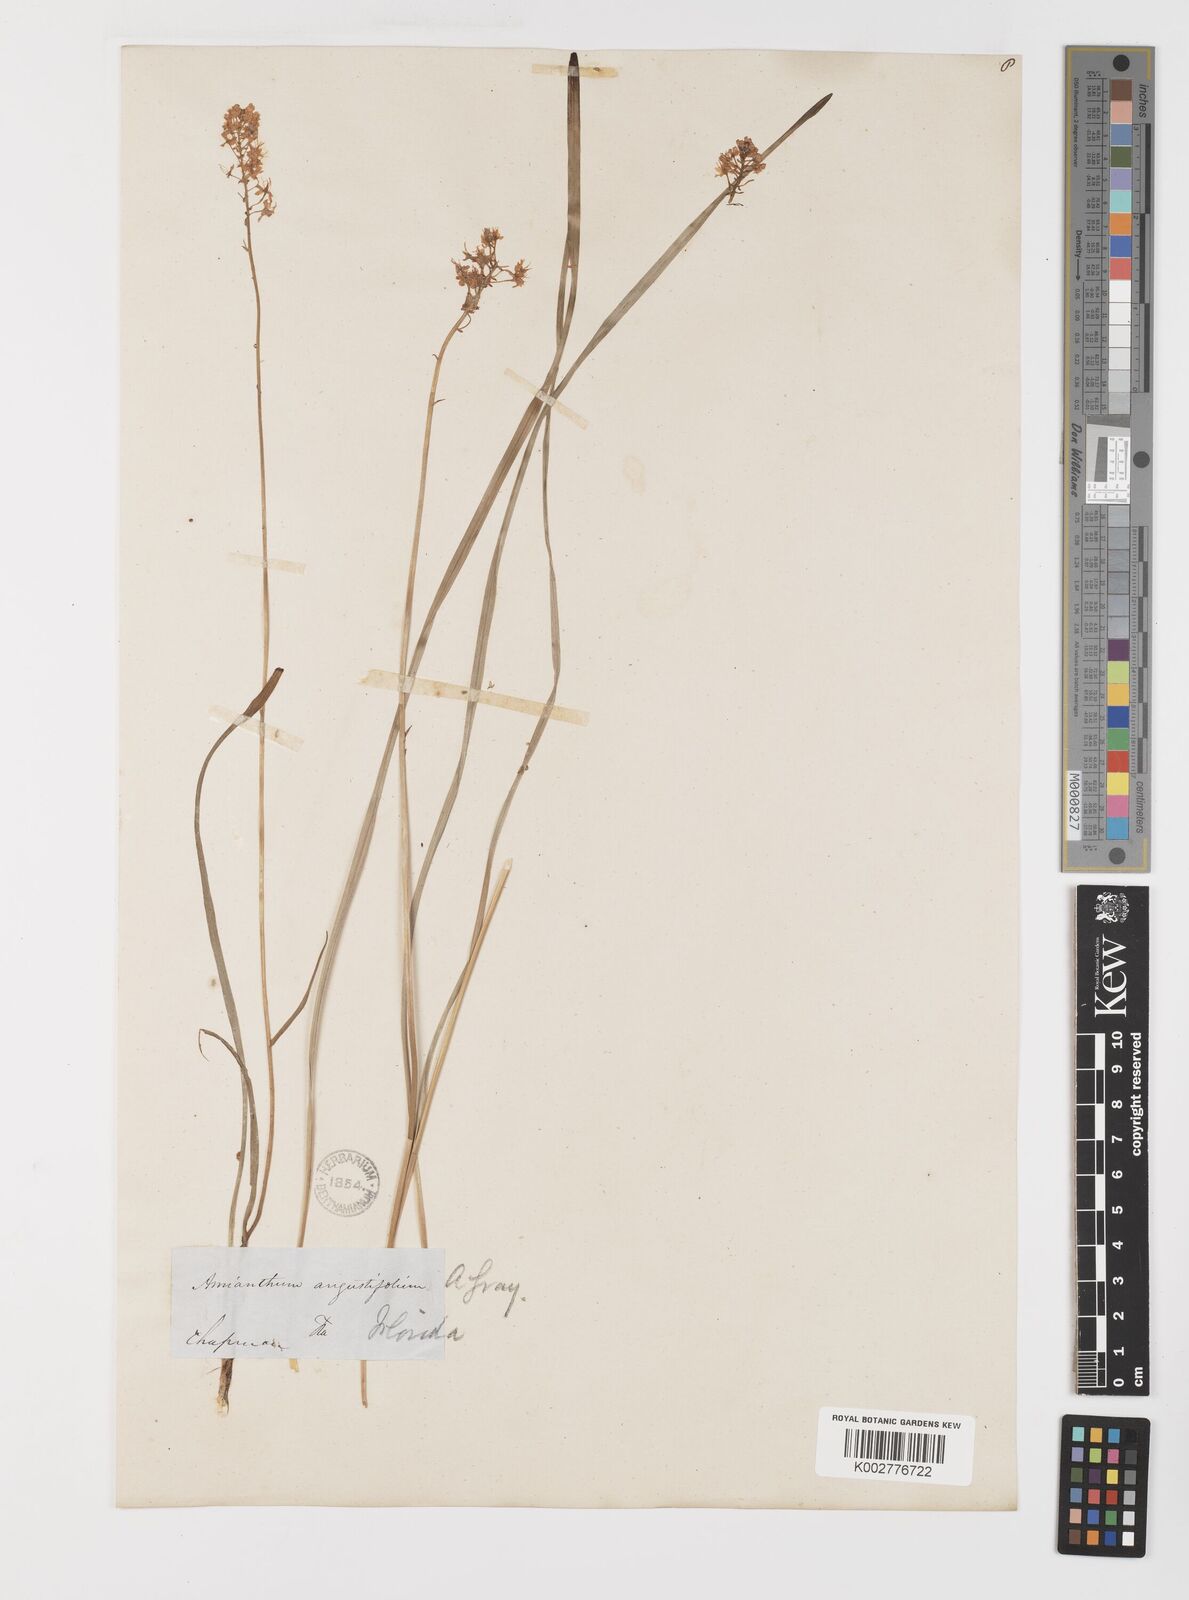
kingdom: Plantae
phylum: Tracheophyta
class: Liliopsida
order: Liliales
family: Melanthiaceae
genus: Stenanthium
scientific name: Stenanthium densum
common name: Crow-poison
